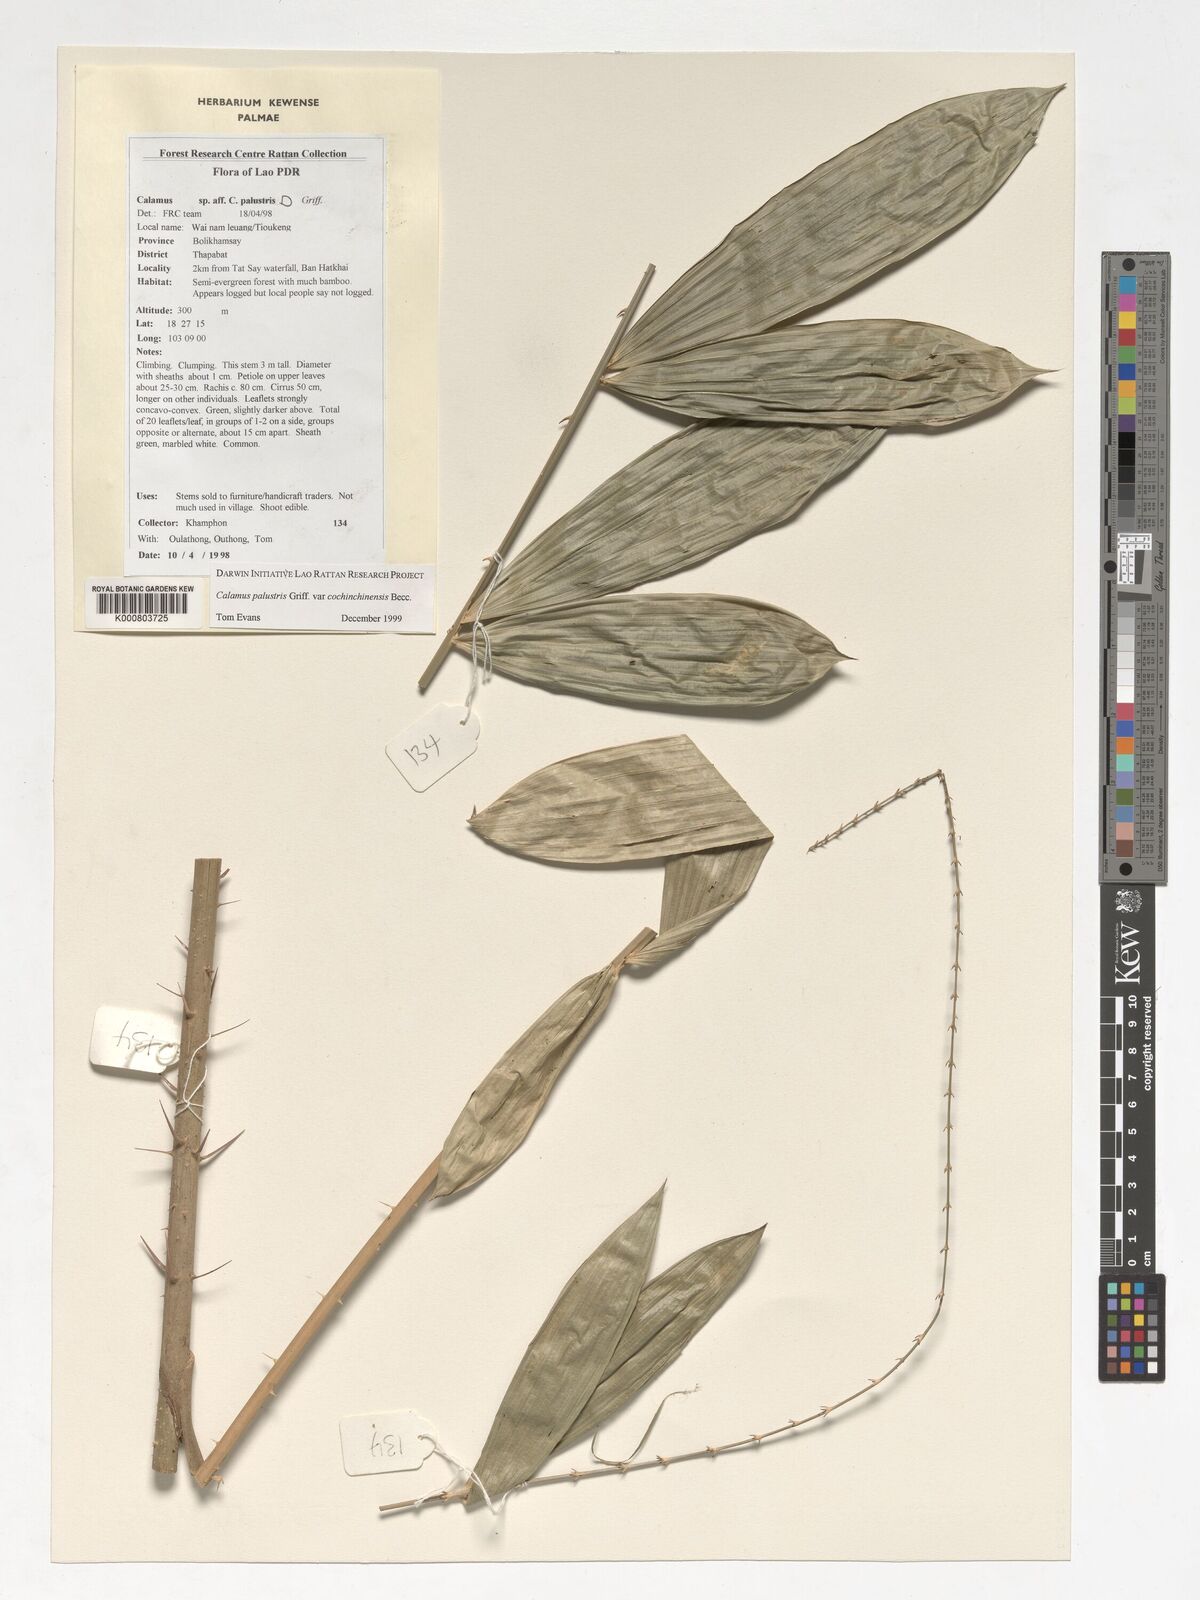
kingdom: Plantae
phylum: Tracheophyta
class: Liliopsida
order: Arecales
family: Arecaceae
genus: Calamus
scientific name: Calamus latifolius
